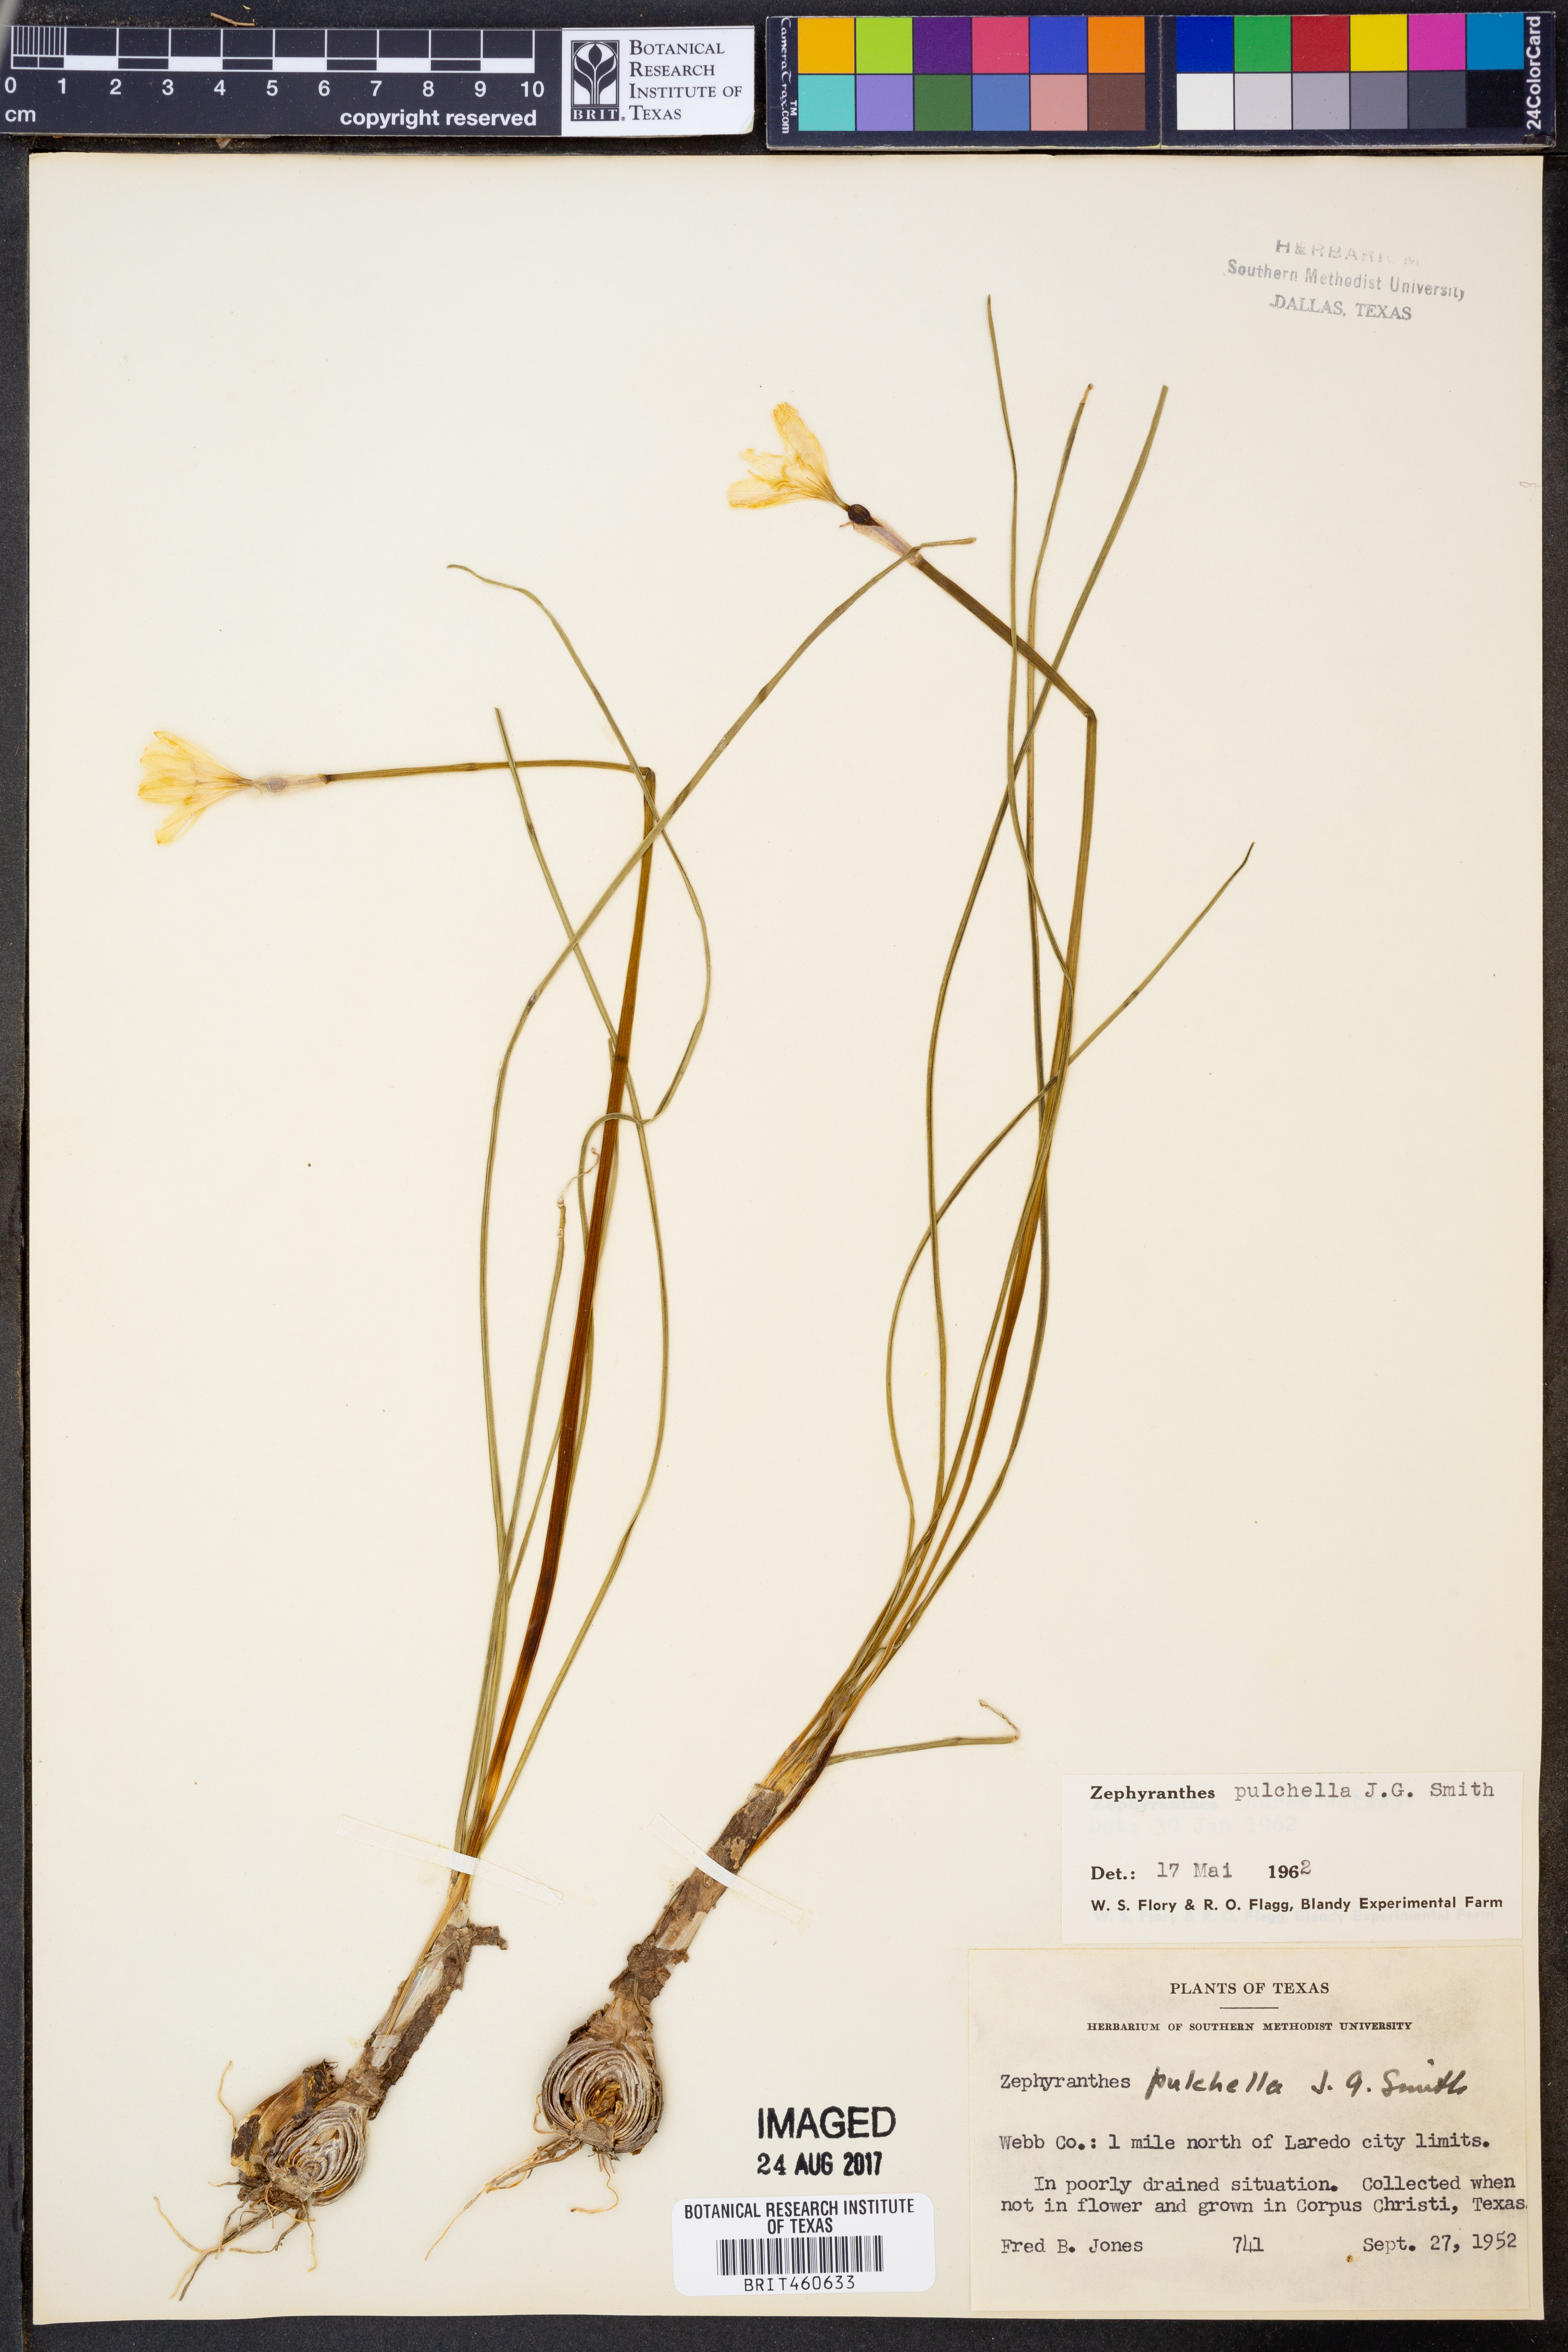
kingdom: Plantae
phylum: Tracheophyta
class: Liliopsida
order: Asparagales
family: Amaryllidaceae
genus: Zephyranthes
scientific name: Zephyranthes pulchella
